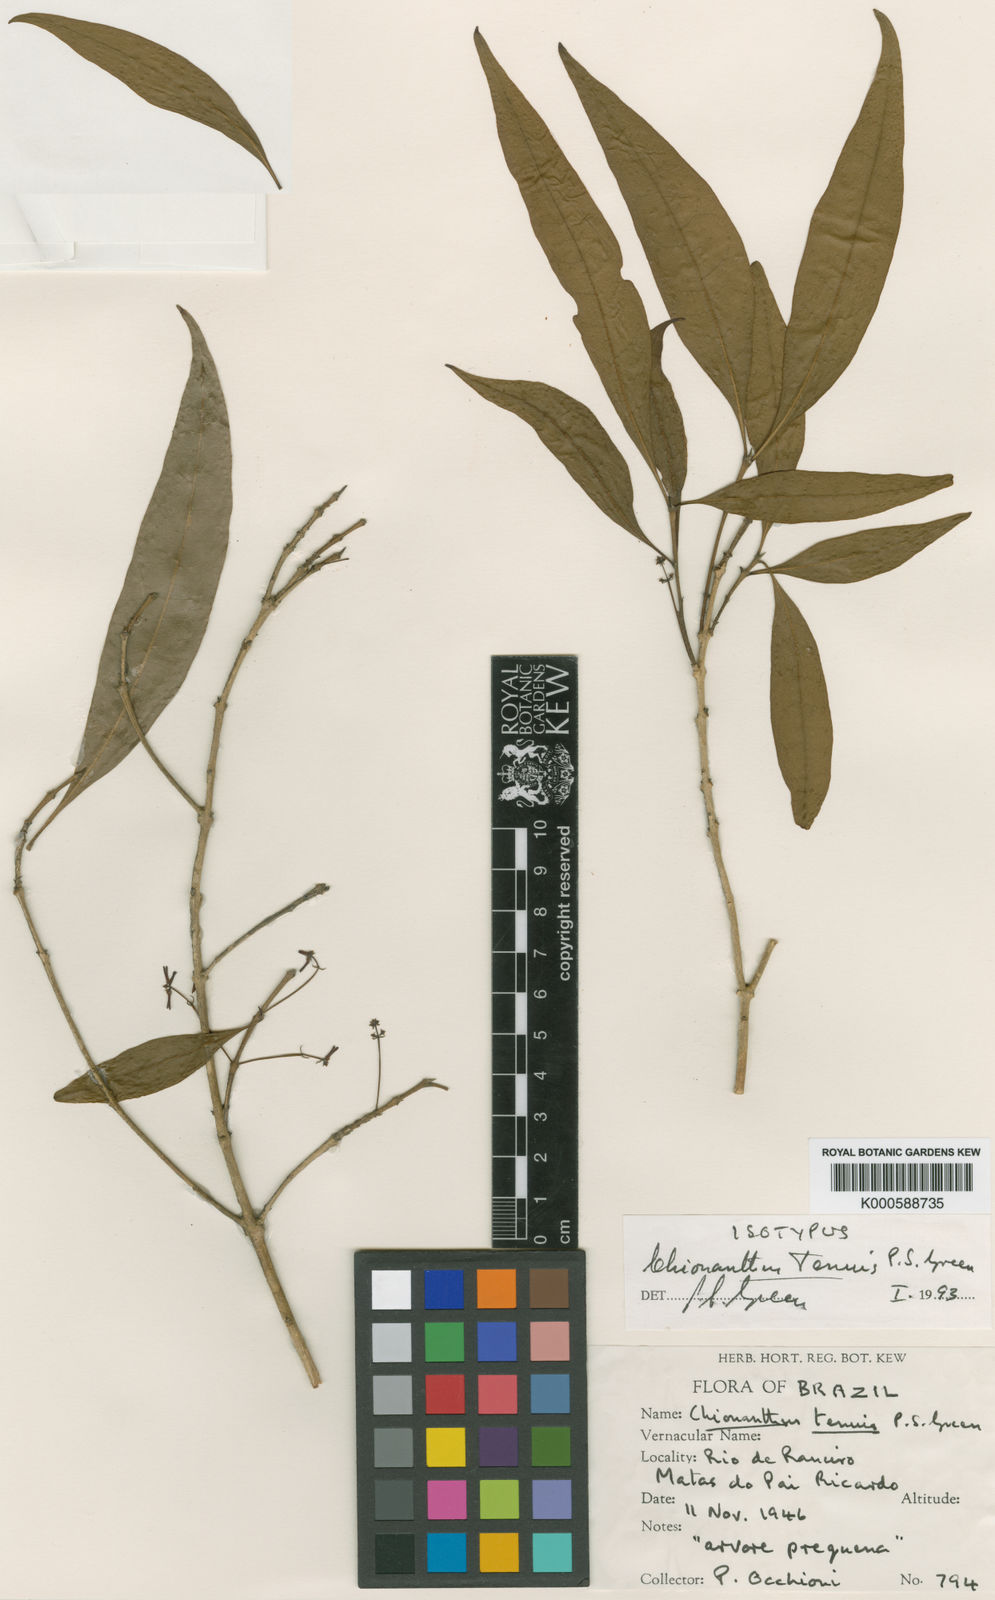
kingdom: Plantae
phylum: Tracheophyta
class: Magnoliopsida
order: Lamiales
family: Oleaceae
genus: Chionanthus
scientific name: Chionanthus tenuis
